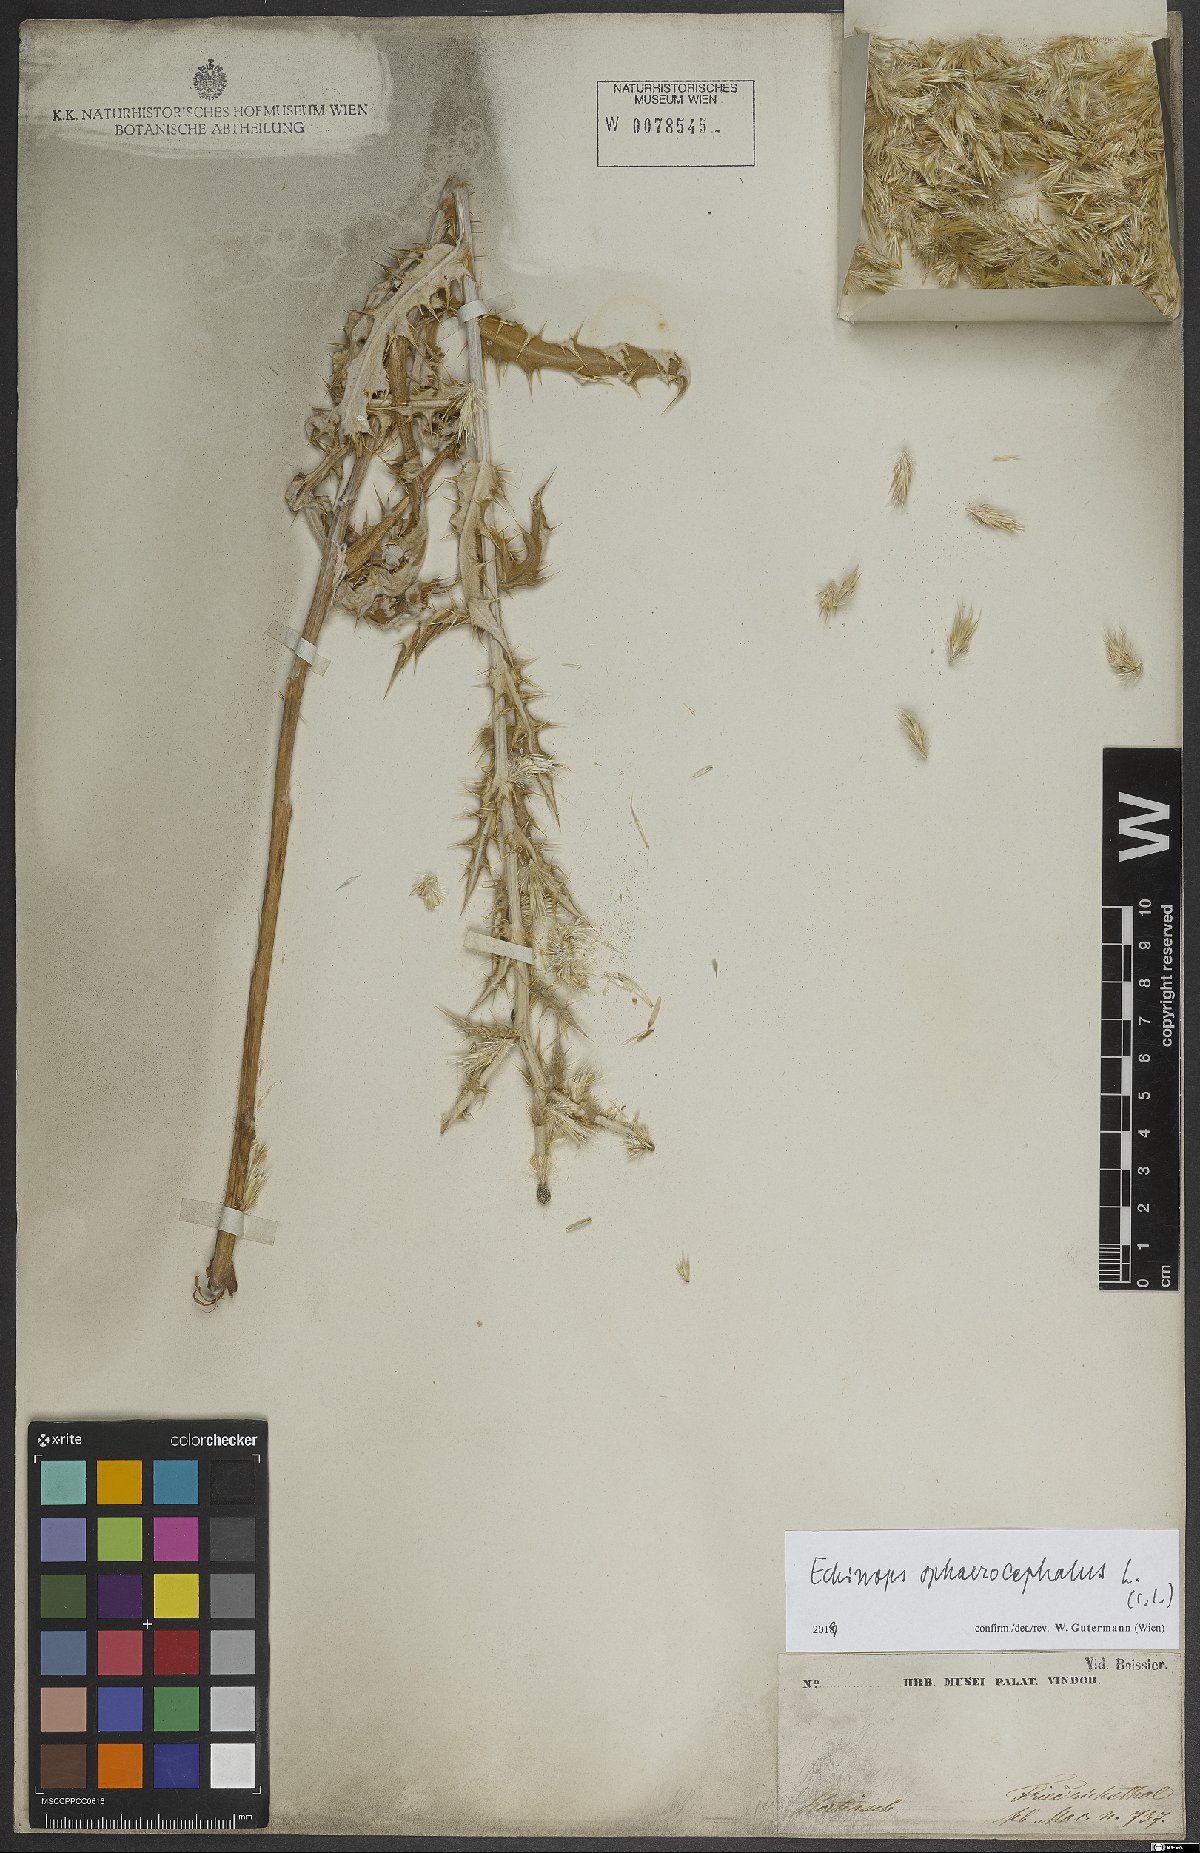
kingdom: Plantae
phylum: Tracheophyta
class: Magnoliopsida
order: Asterales
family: Asteraceae
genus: Echinops
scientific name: Echinops sphaerocephalus
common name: Glandular globe-thistle
